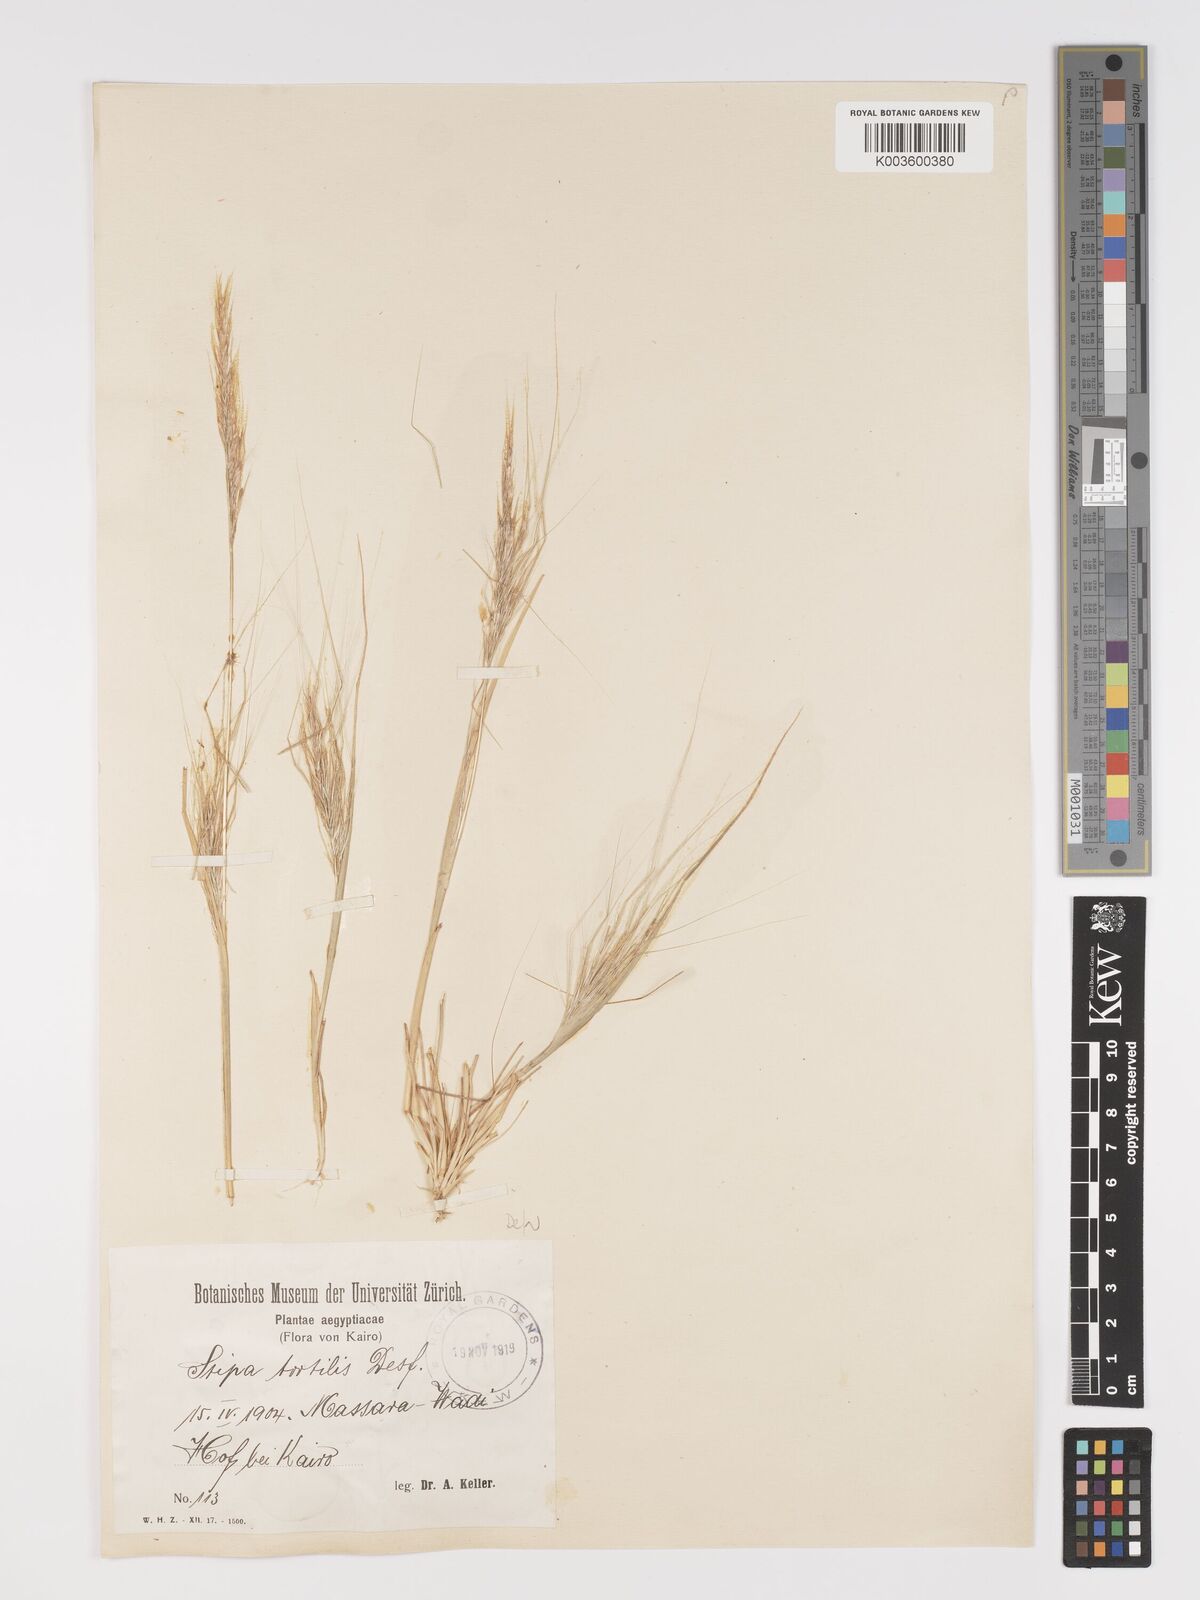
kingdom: Plantae
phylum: Tracheophyta
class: Liliopsida
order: Poales
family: Poaceae
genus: Stipellula
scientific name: Stipellula capensis
